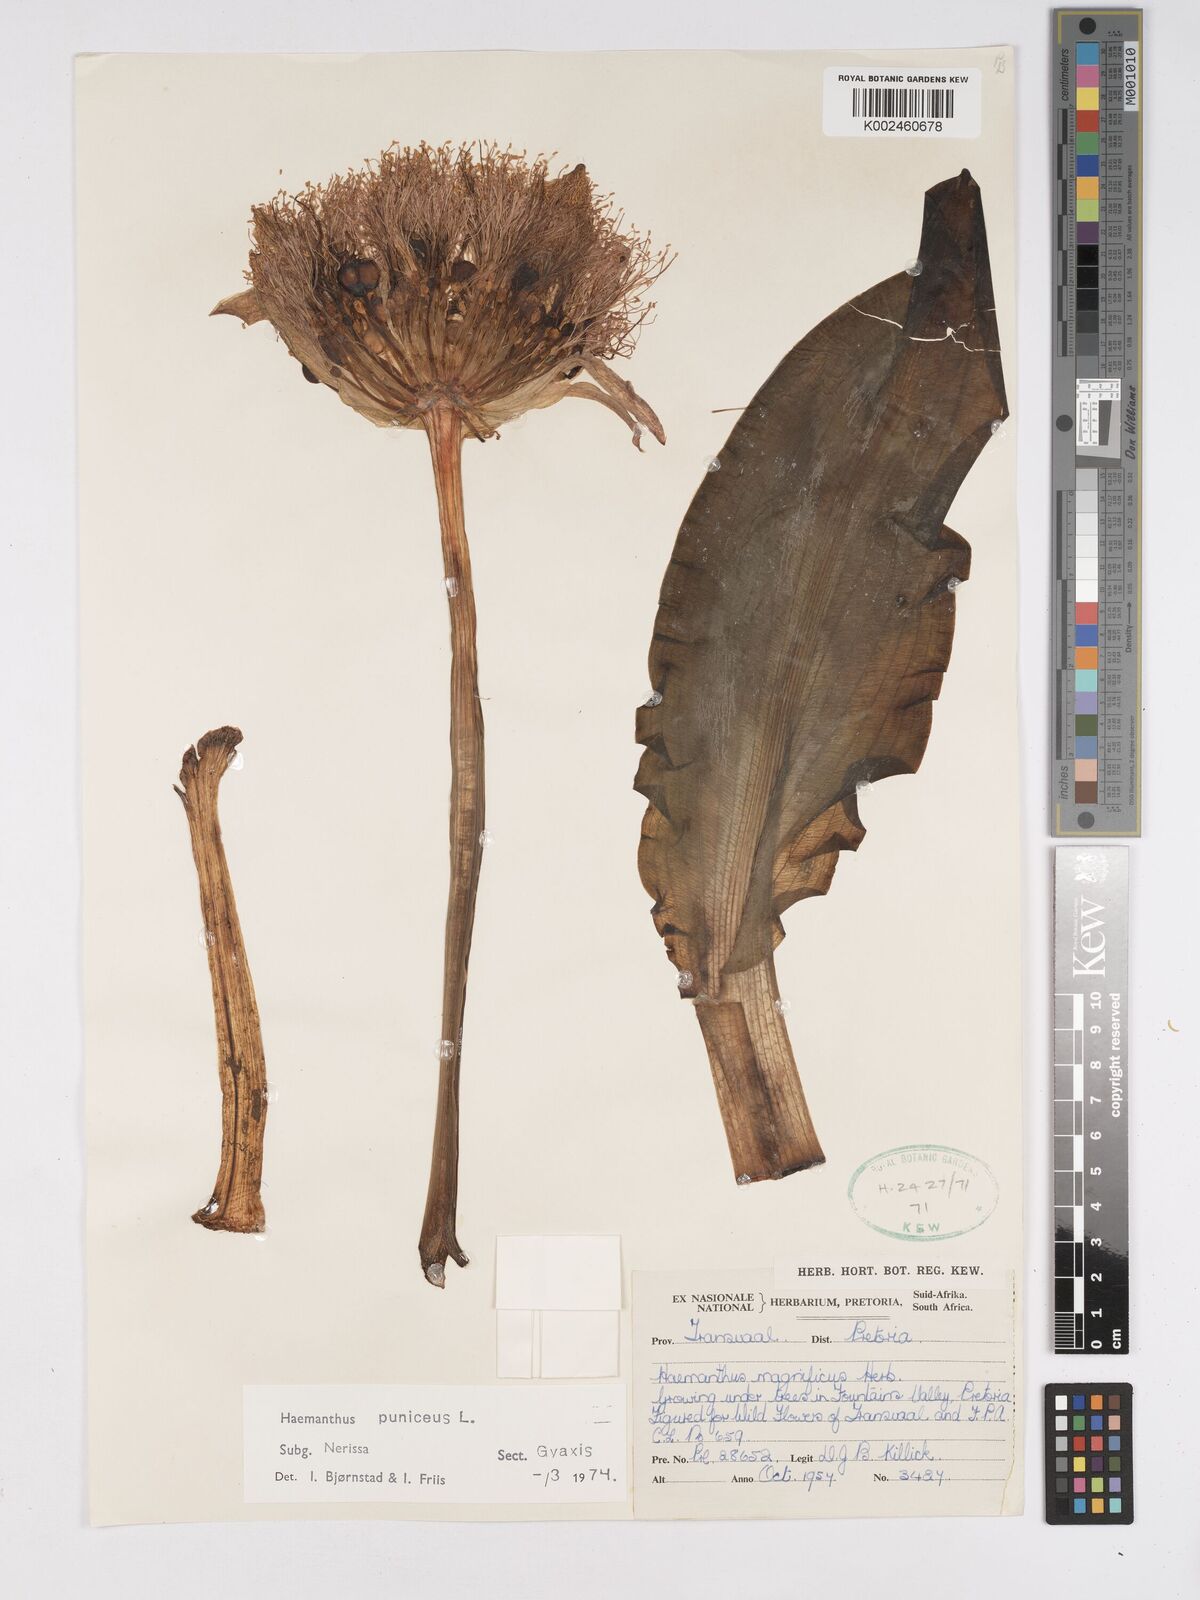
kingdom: Plantae
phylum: Tracheophyta
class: Liliopsida
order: Asparagales
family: Amaryllidaceae
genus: Scadoxus
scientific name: Scadoxus puniceus
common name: Royal-paintbrush
